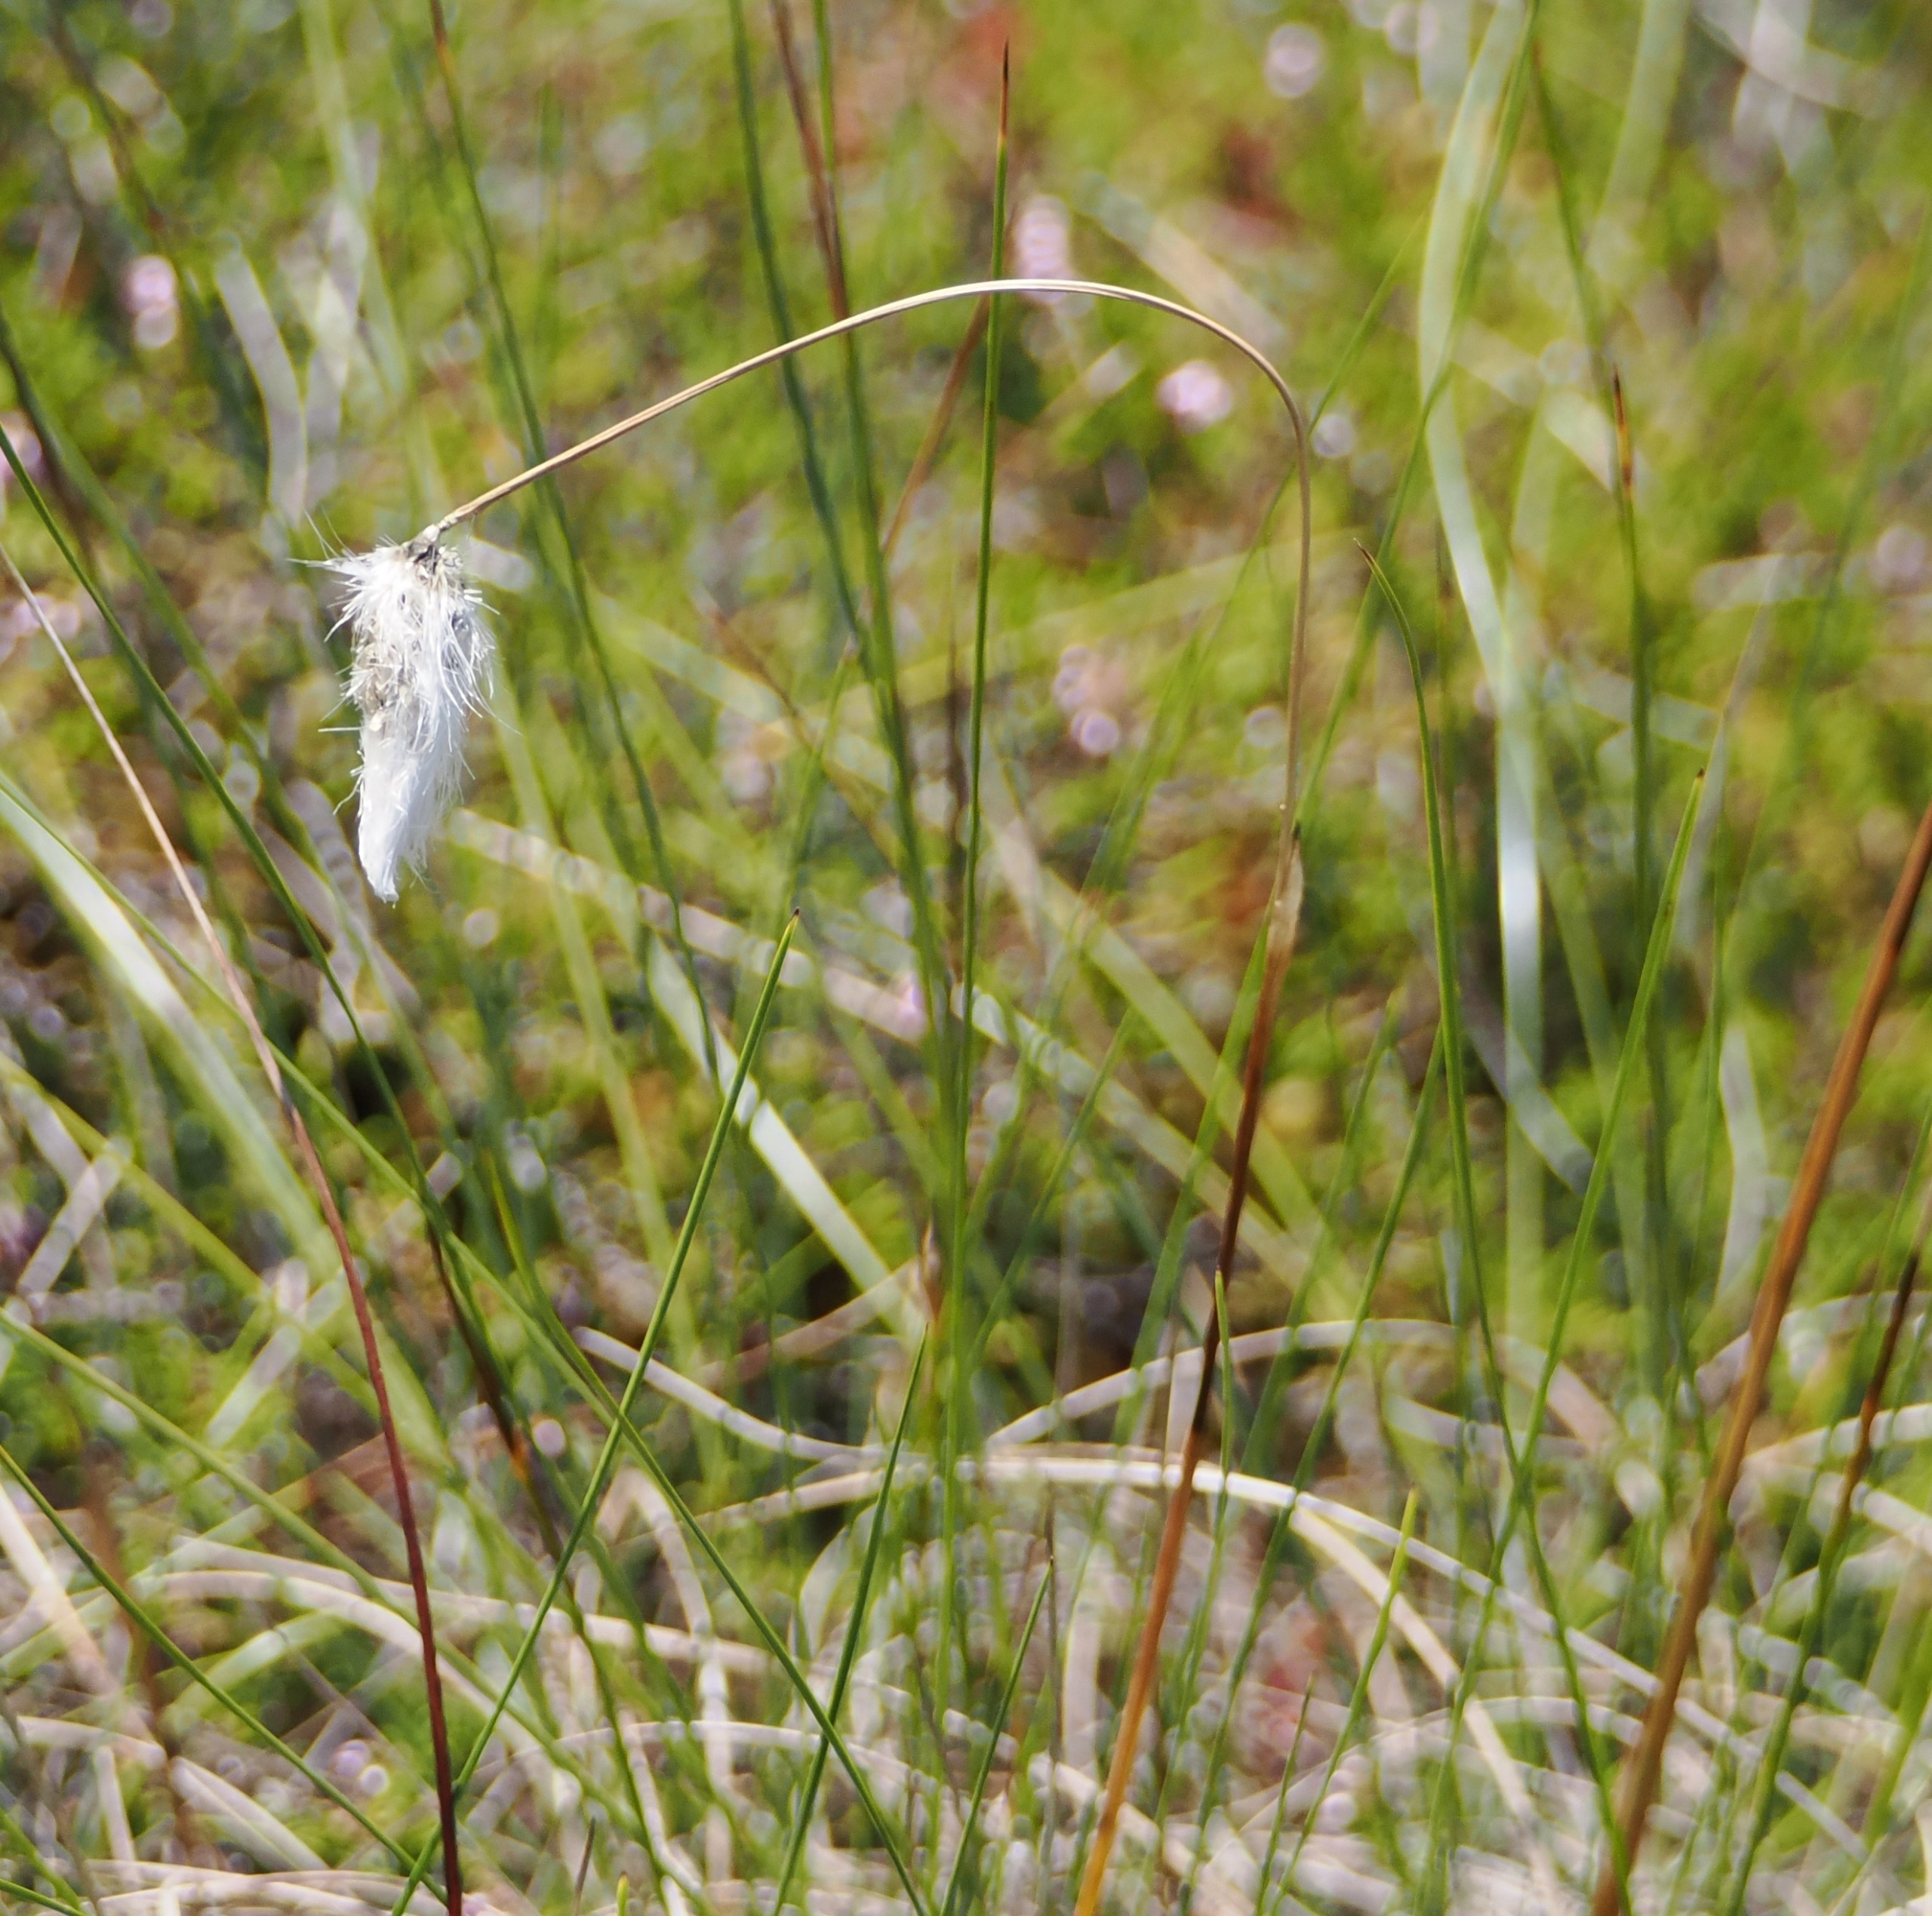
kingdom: Plantae
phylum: Tracheophyta
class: Liliopsida
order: Poales
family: Cyperaceae
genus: Eriophorum
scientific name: Eriophorum vaginatum
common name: Tue-kæruld
